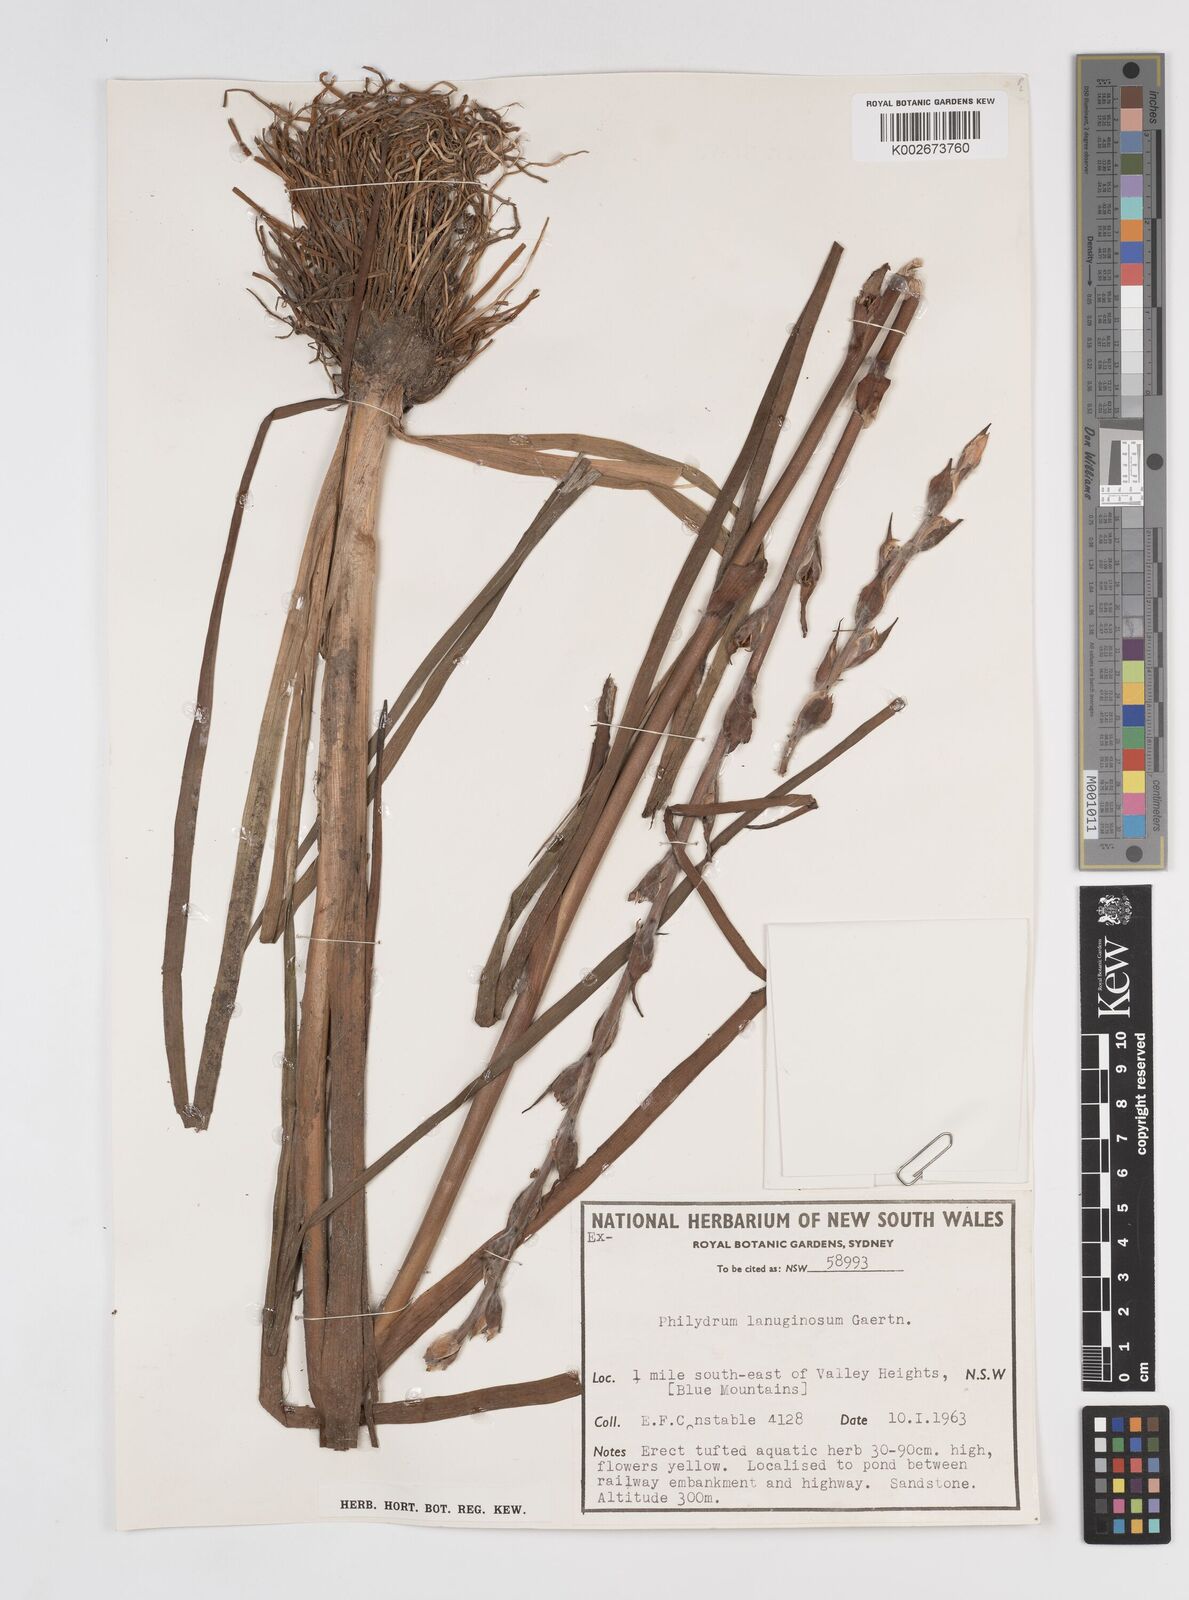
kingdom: Plantae
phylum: Tracheophyta
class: Liliopsida
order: Commelinales
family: Philydraceae
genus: Philydrum
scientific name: Philydrum lanuginosum
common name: Woolly frog's mouth
